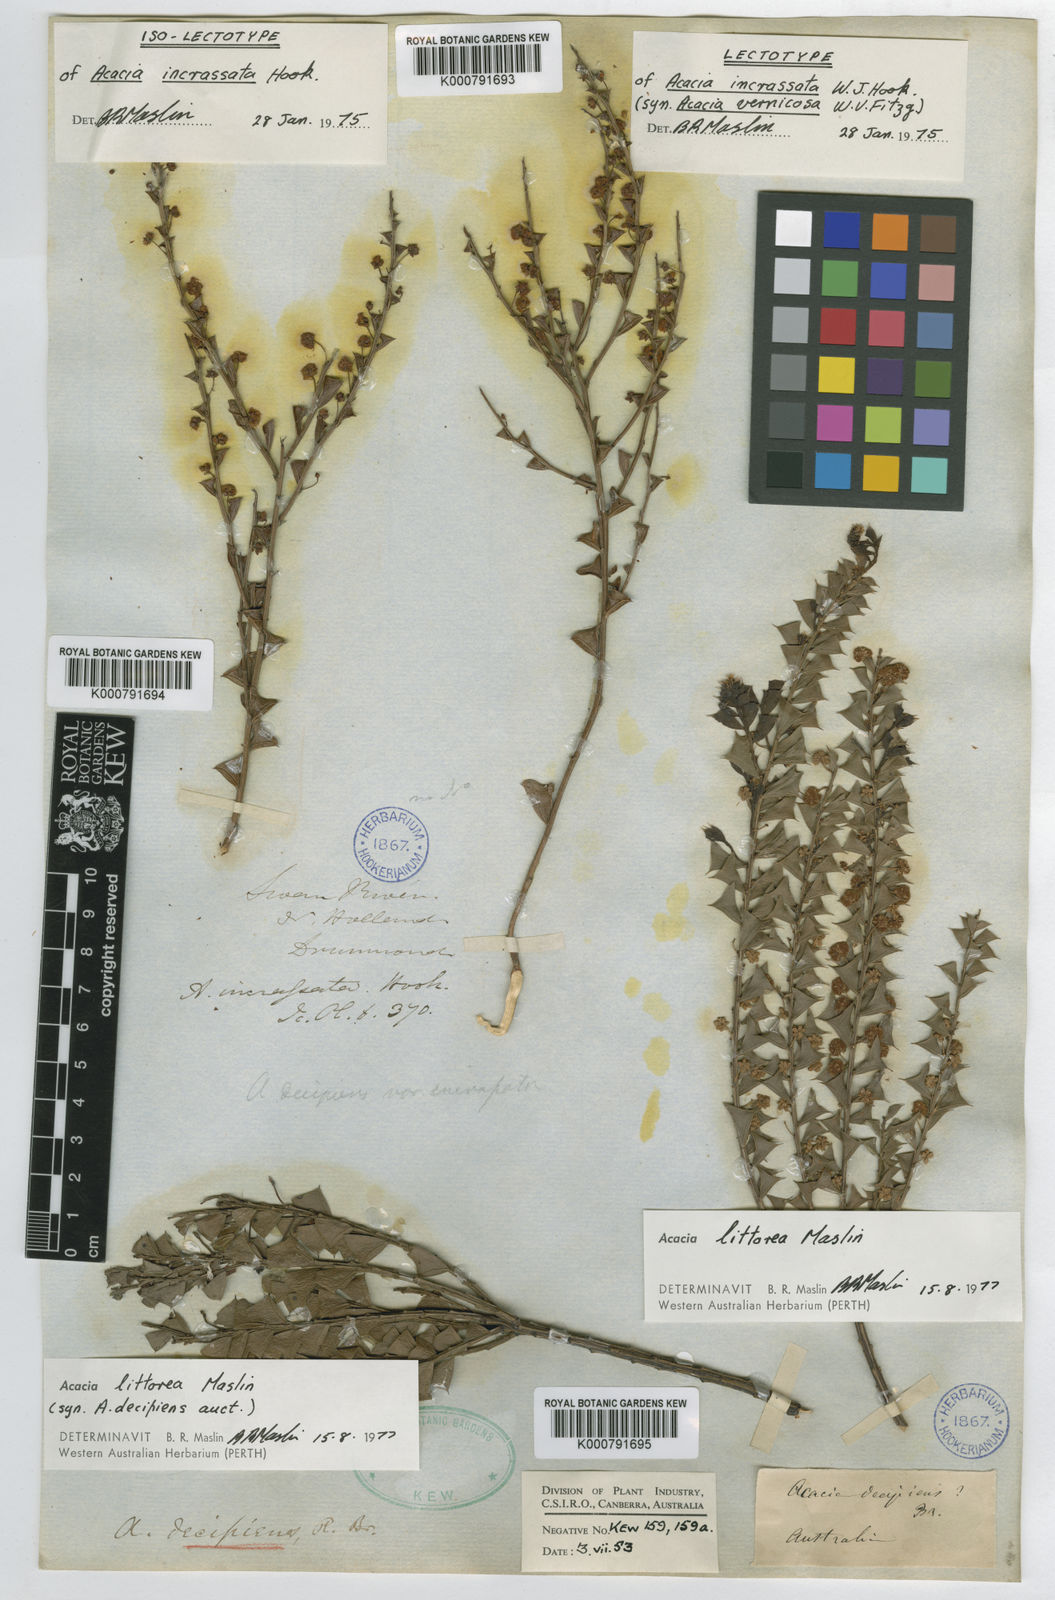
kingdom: Plantae
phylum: Tracheophyta
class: Magnoliopsida
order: Fabales
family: Fabaceae
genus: Acacia
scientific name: Acacia incrassata
